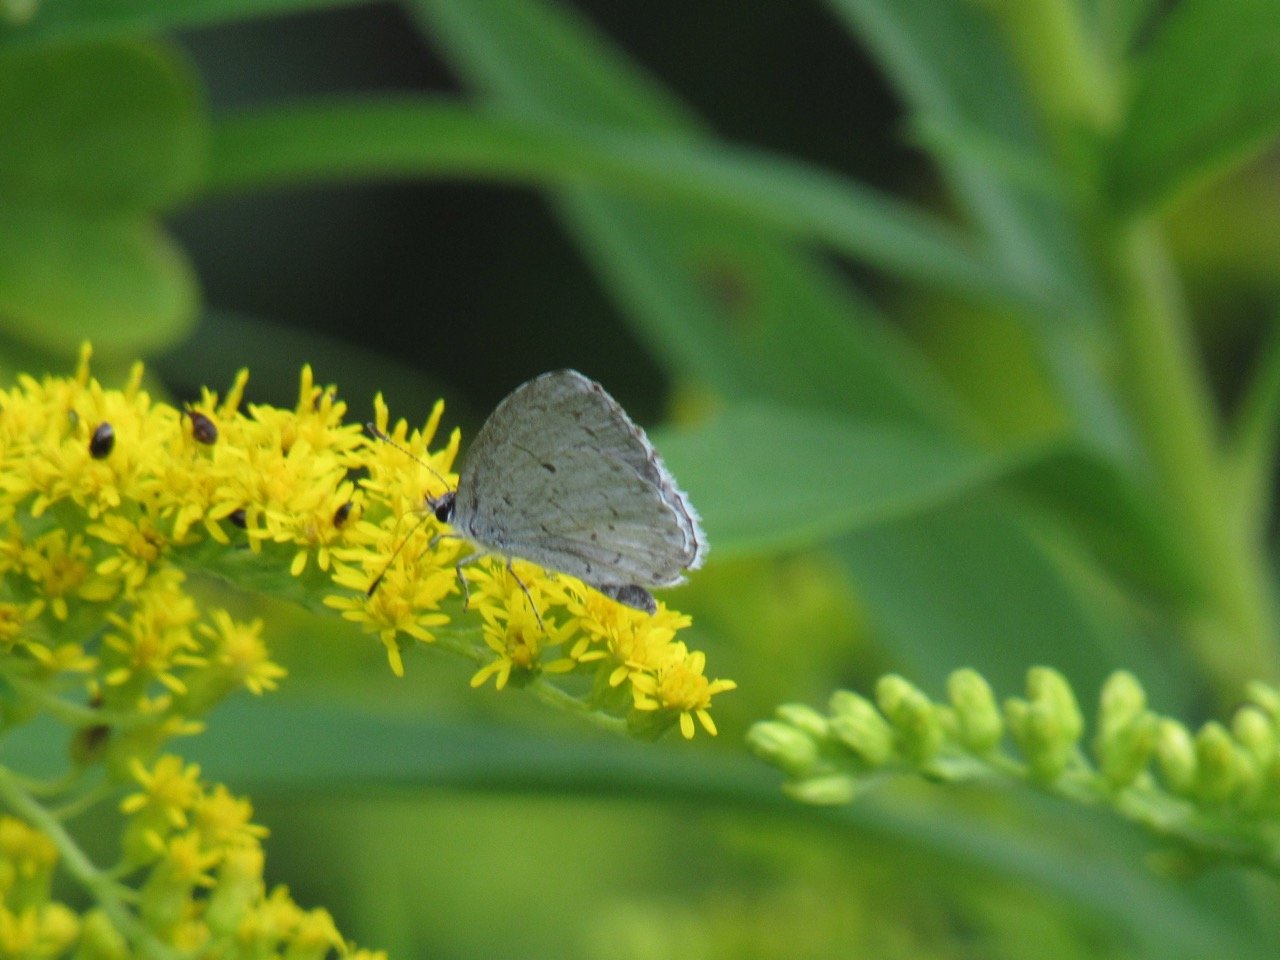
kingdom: Animalia
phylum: Arthropoda
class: Insecta
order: Lepidoptera
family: Lycaenidae
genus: Cyaniris
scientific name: Cyaniris neglecta
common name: Summer Azure
